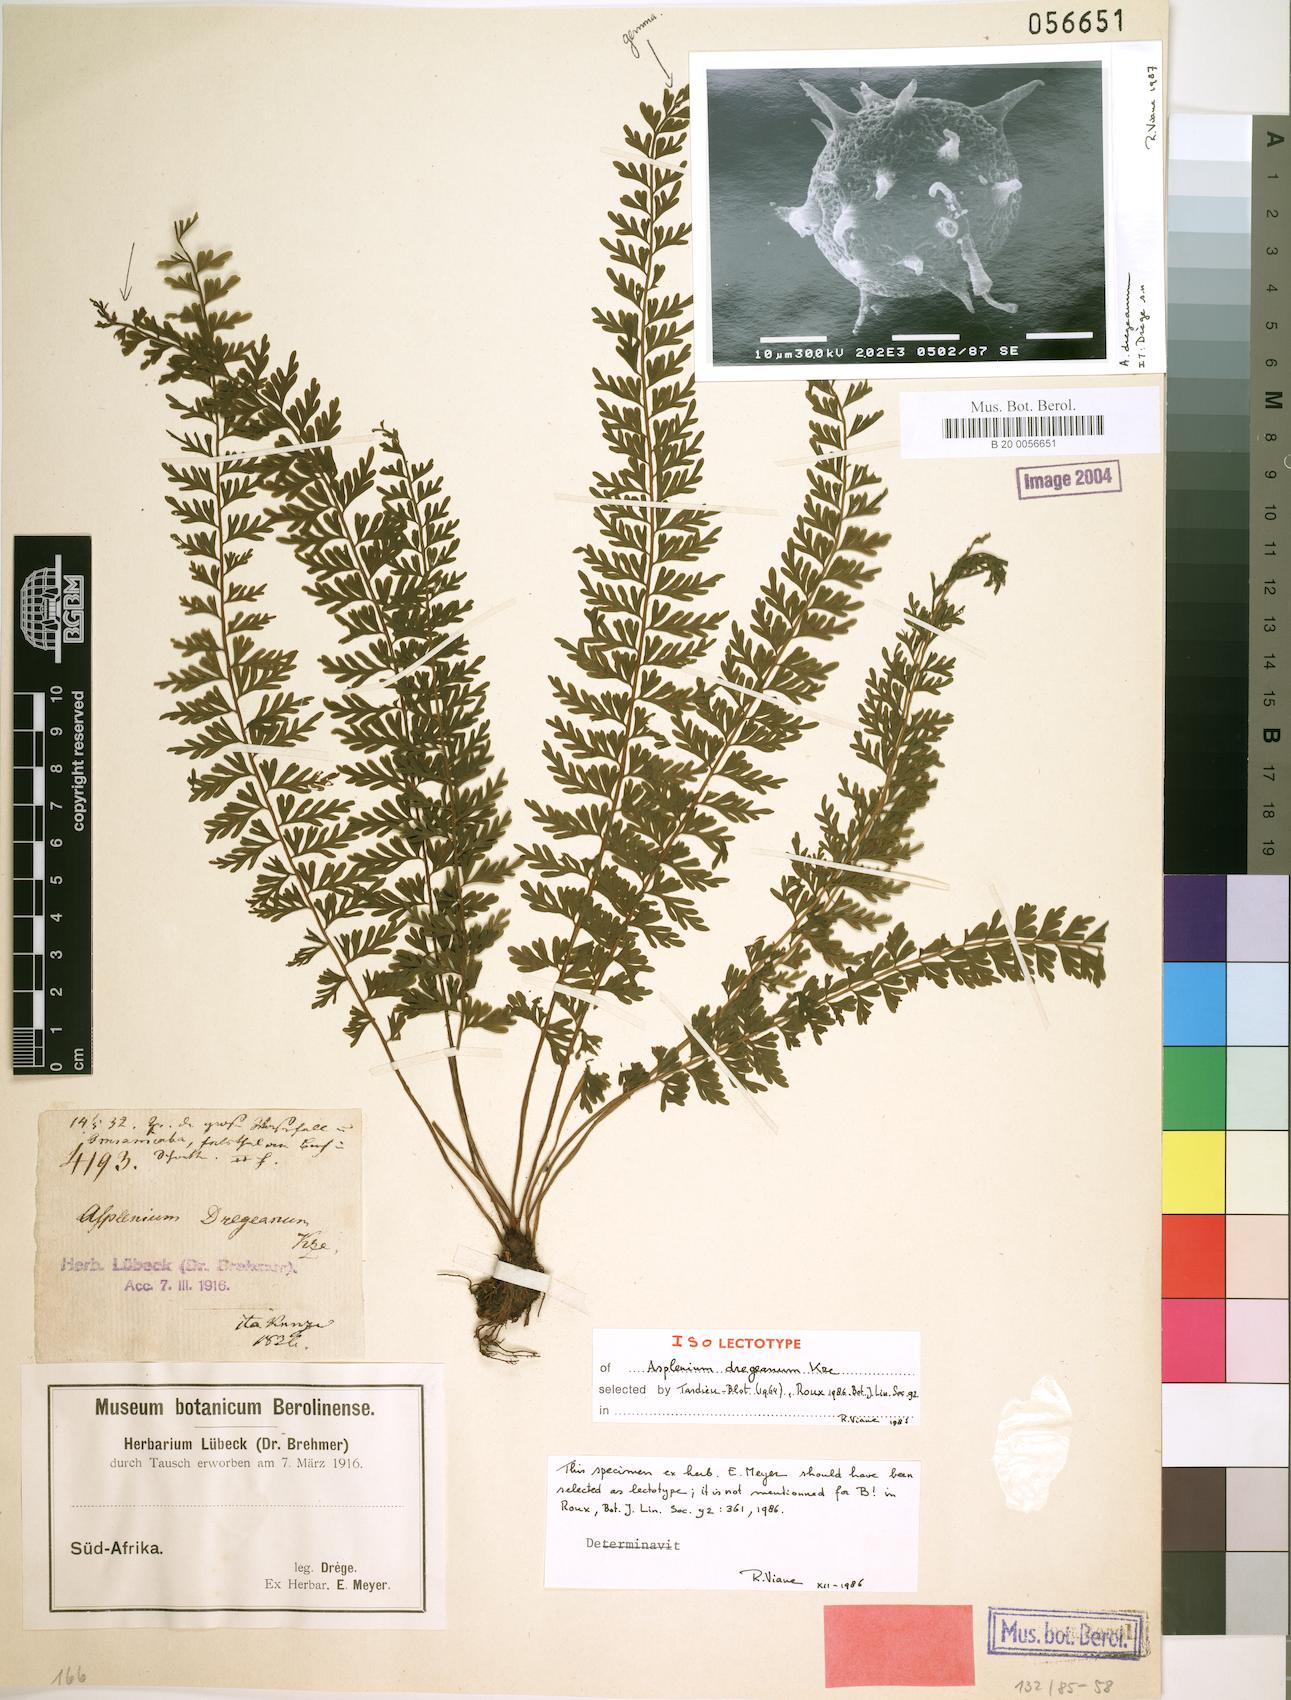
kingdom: Plantae
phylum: Tracheophyta
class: Polypodiopsida
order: Polypodiales
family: Aspleniaceae
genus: Asplenium
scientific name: Asplenium dregeanum
